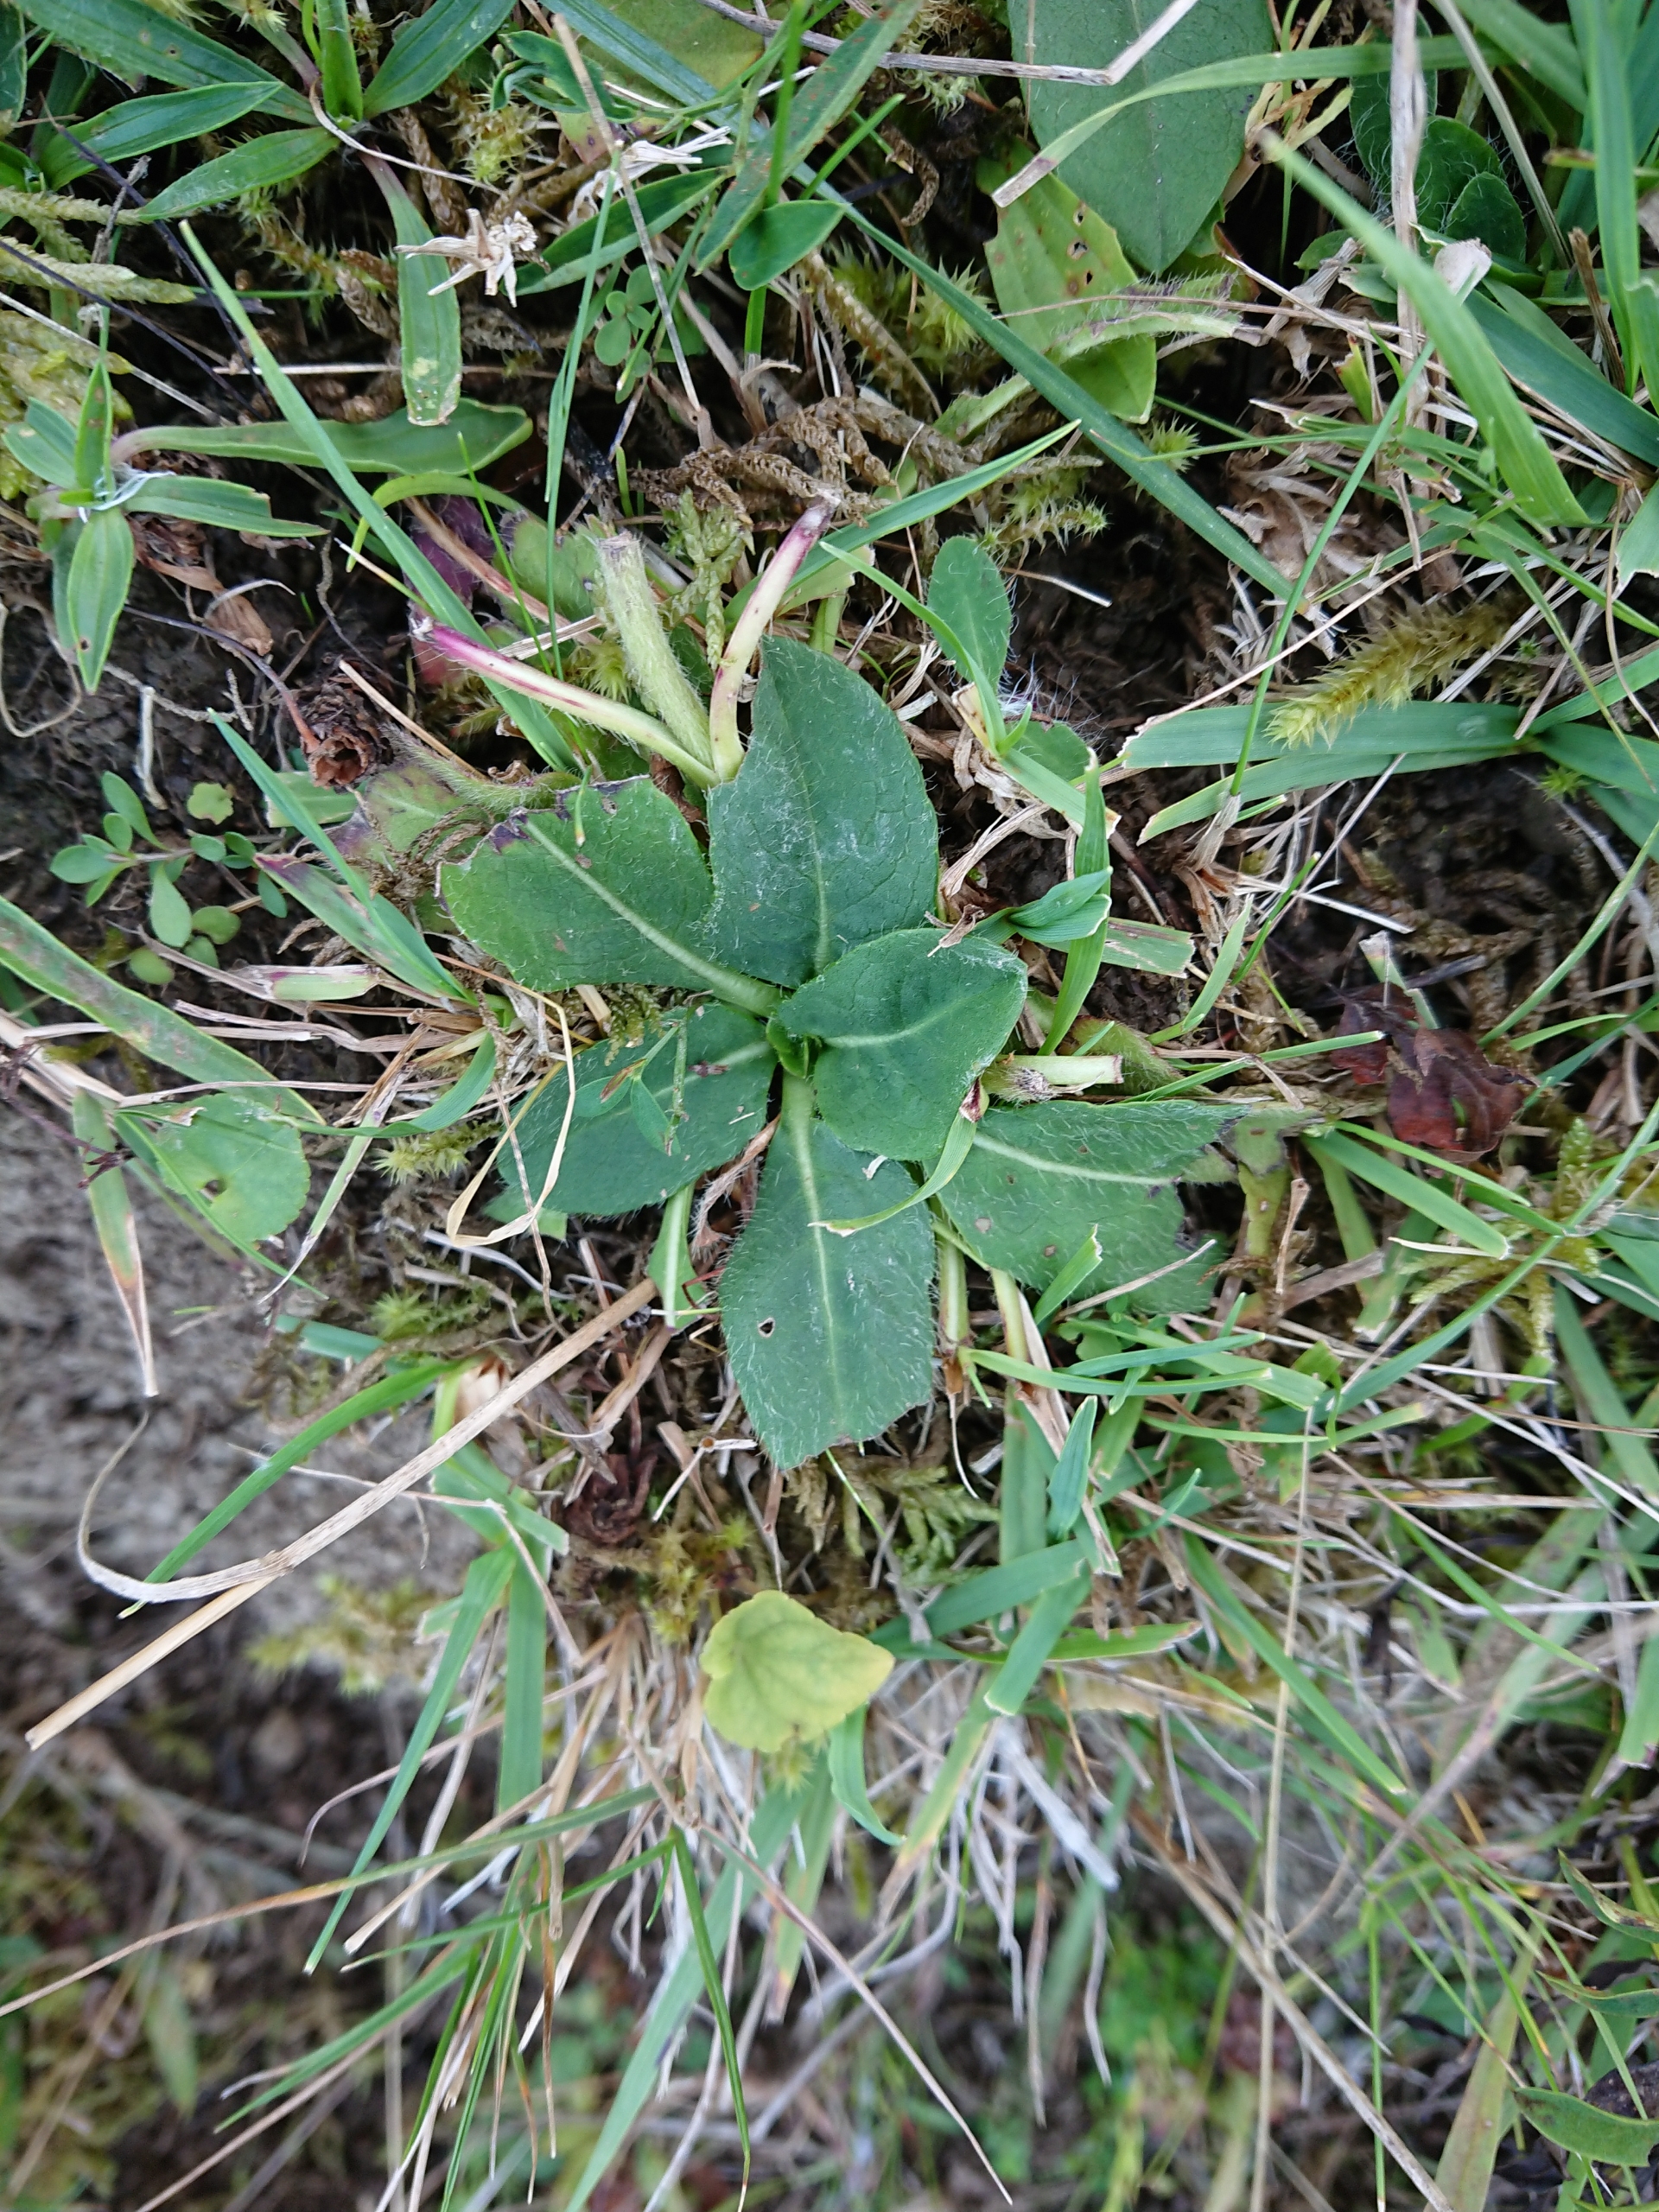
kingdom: Plantae
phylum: Tracheophyta
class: Magnoliopsida
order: Dipsacales
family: Caprifoliaceae
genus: Succisa
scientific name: Succisa pratensis
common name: Djævelsbid
